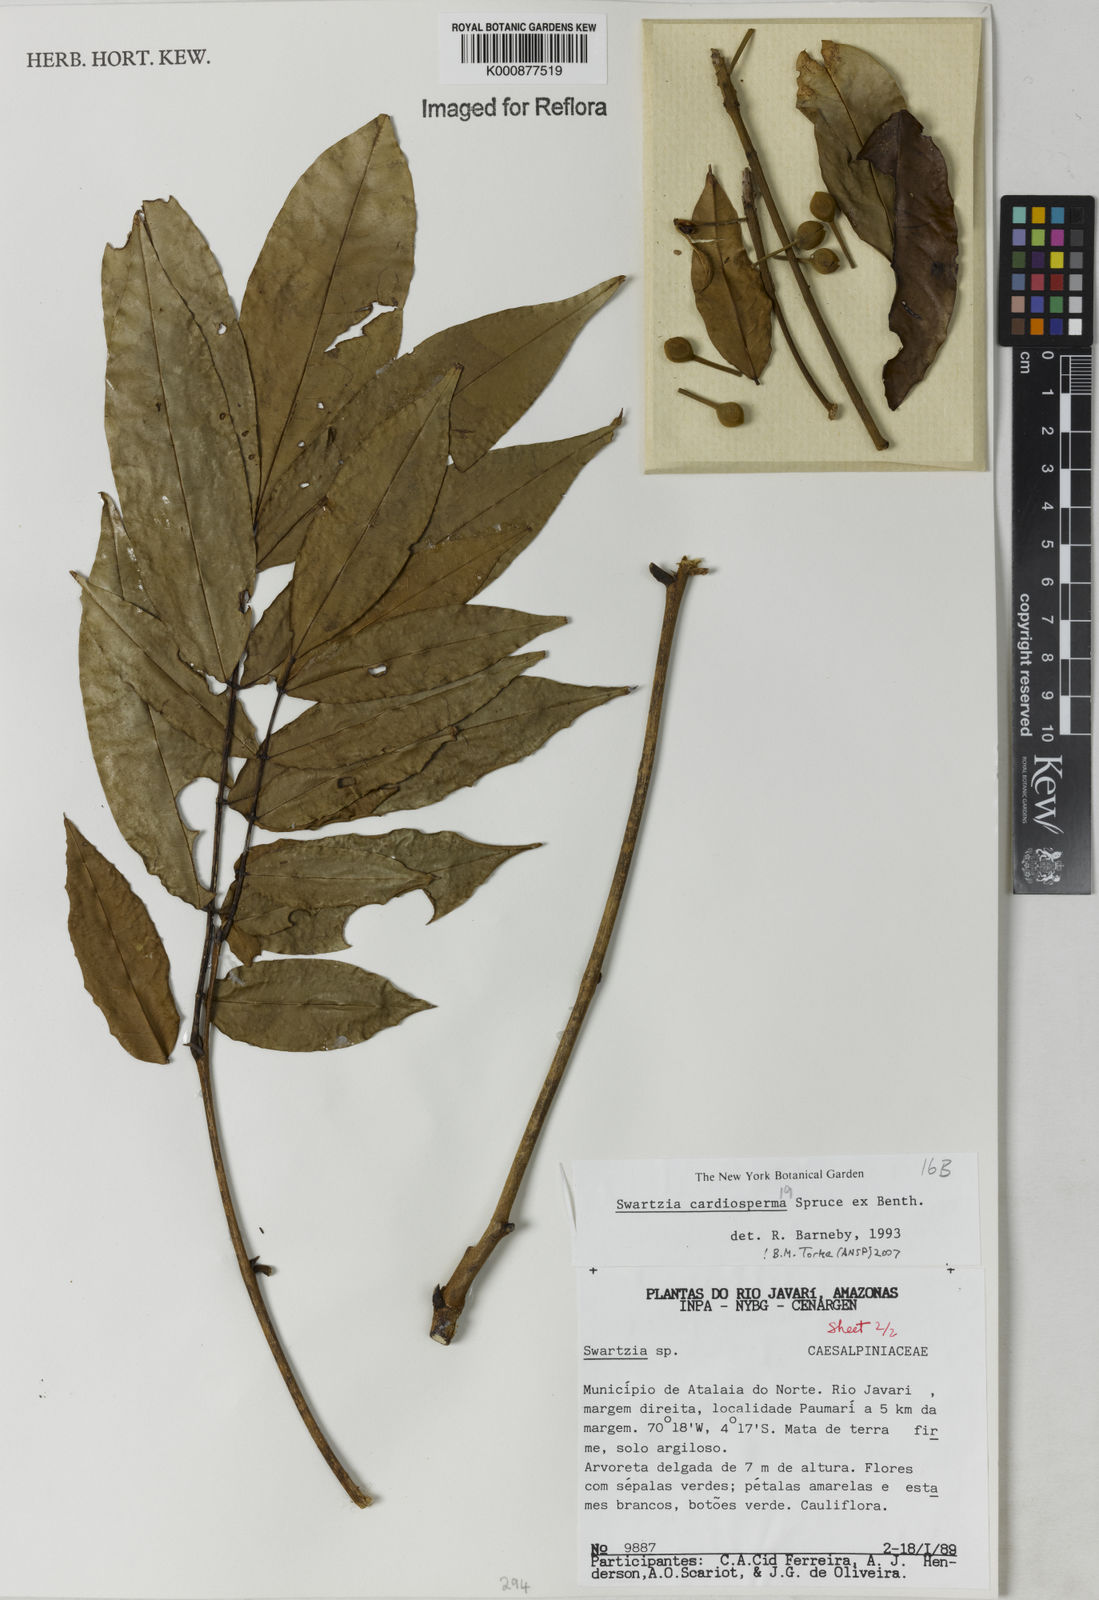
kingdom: Plantae
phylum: Tracheophyta
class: Magnoliopsida
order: Fabales
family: Fabaceae
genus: Swartzia
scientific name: Swartzia cardiosperma
